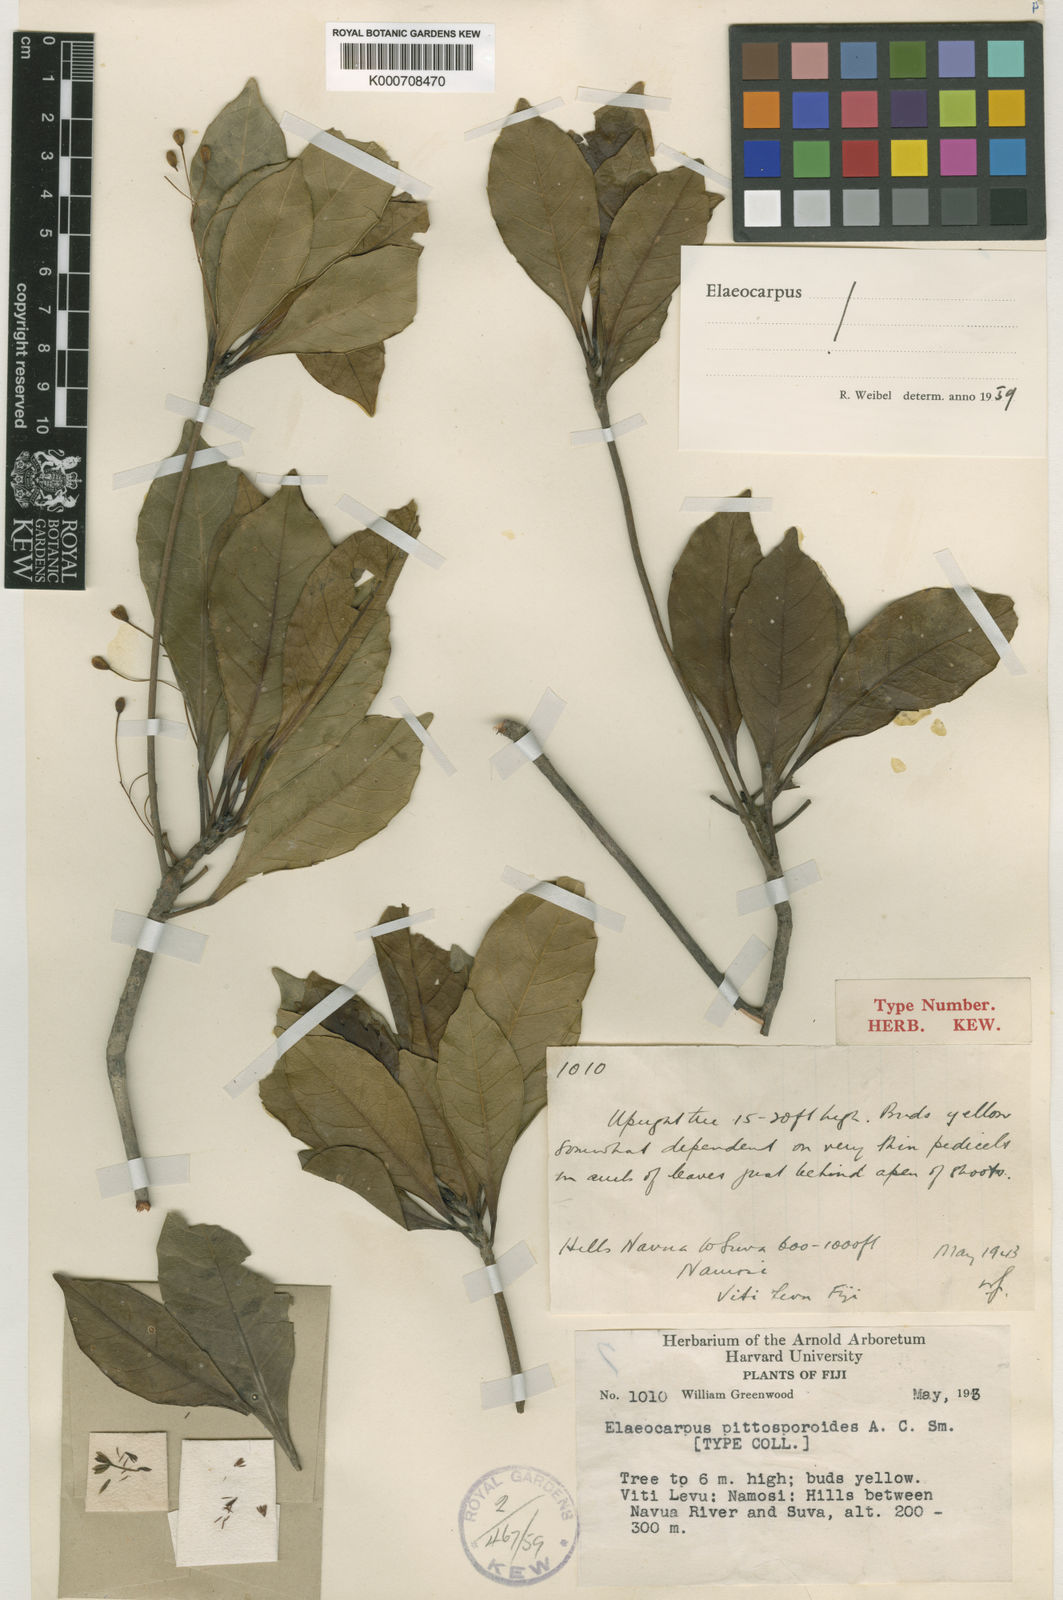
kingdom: Plantae
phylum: Tracheophyta
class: Magnoliopsida
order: Oxalidales
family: Elaeocarpaceae
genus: Elaeocarpus
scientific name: Elaeocarpus pittosporoides
